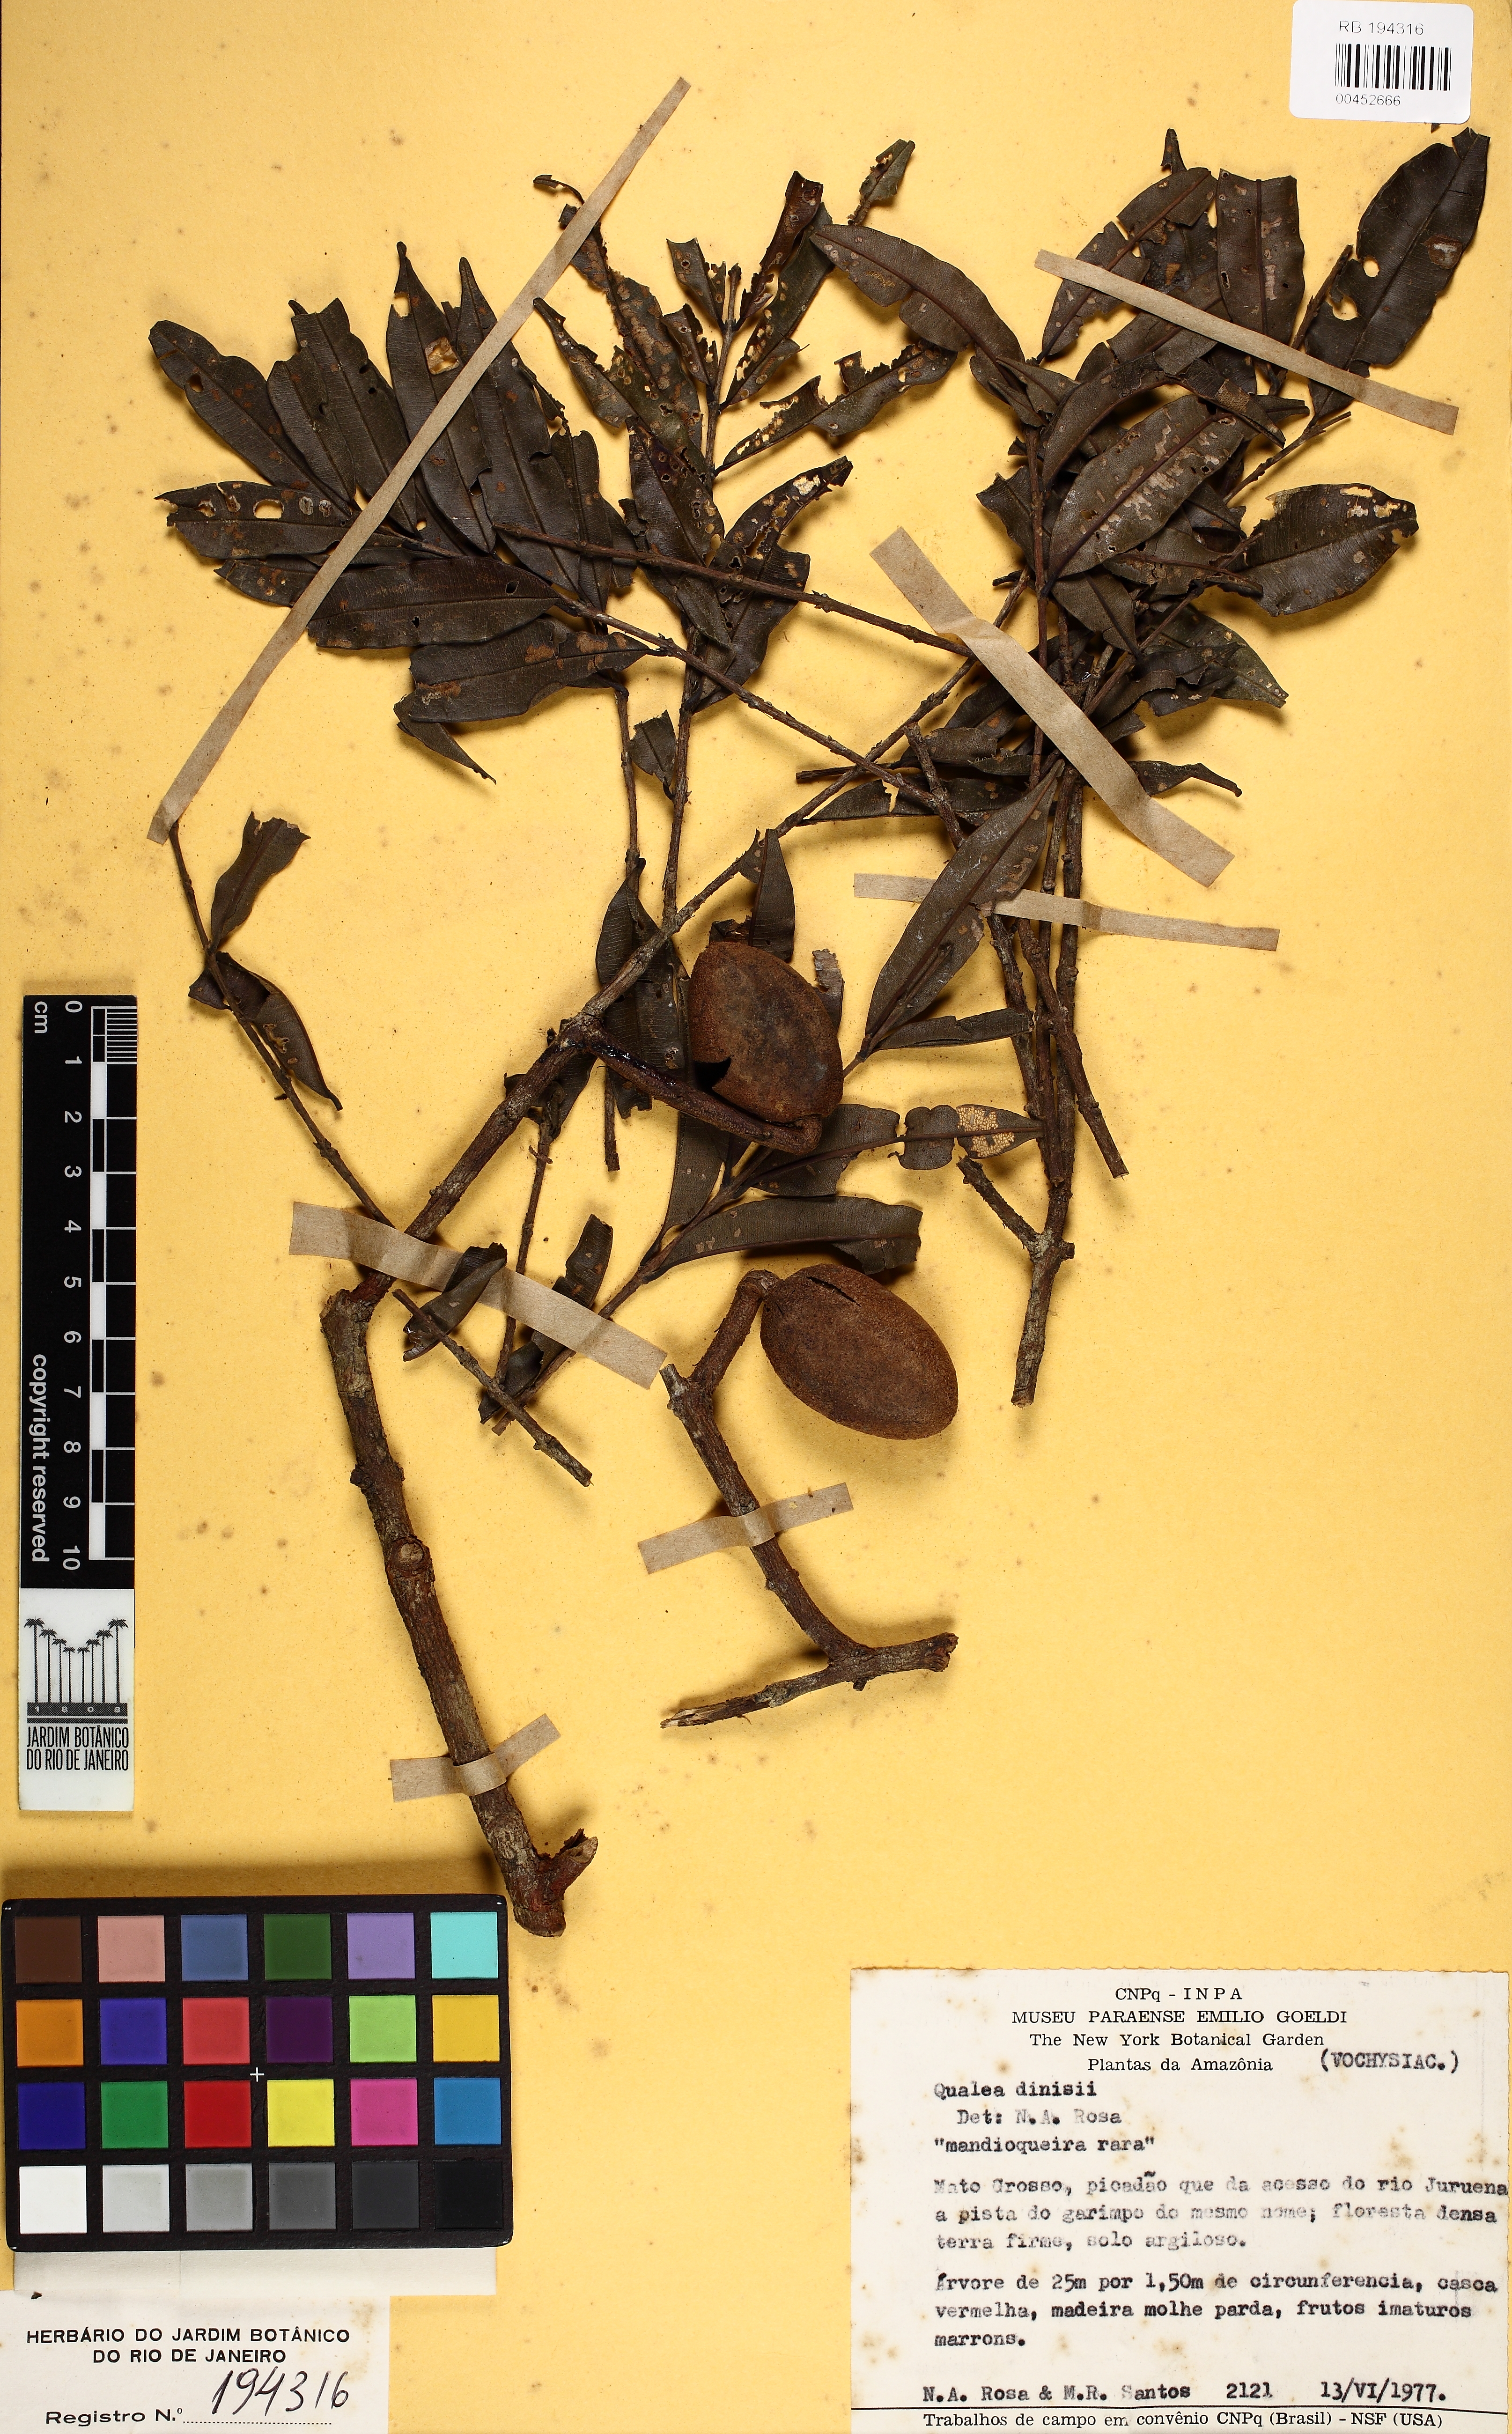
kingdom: Plantae
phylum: Tracheophyta
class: Magnoliopsida
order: Myrtales
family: Vochysiaceae
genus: Qualea
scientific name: Qualea dinizii
